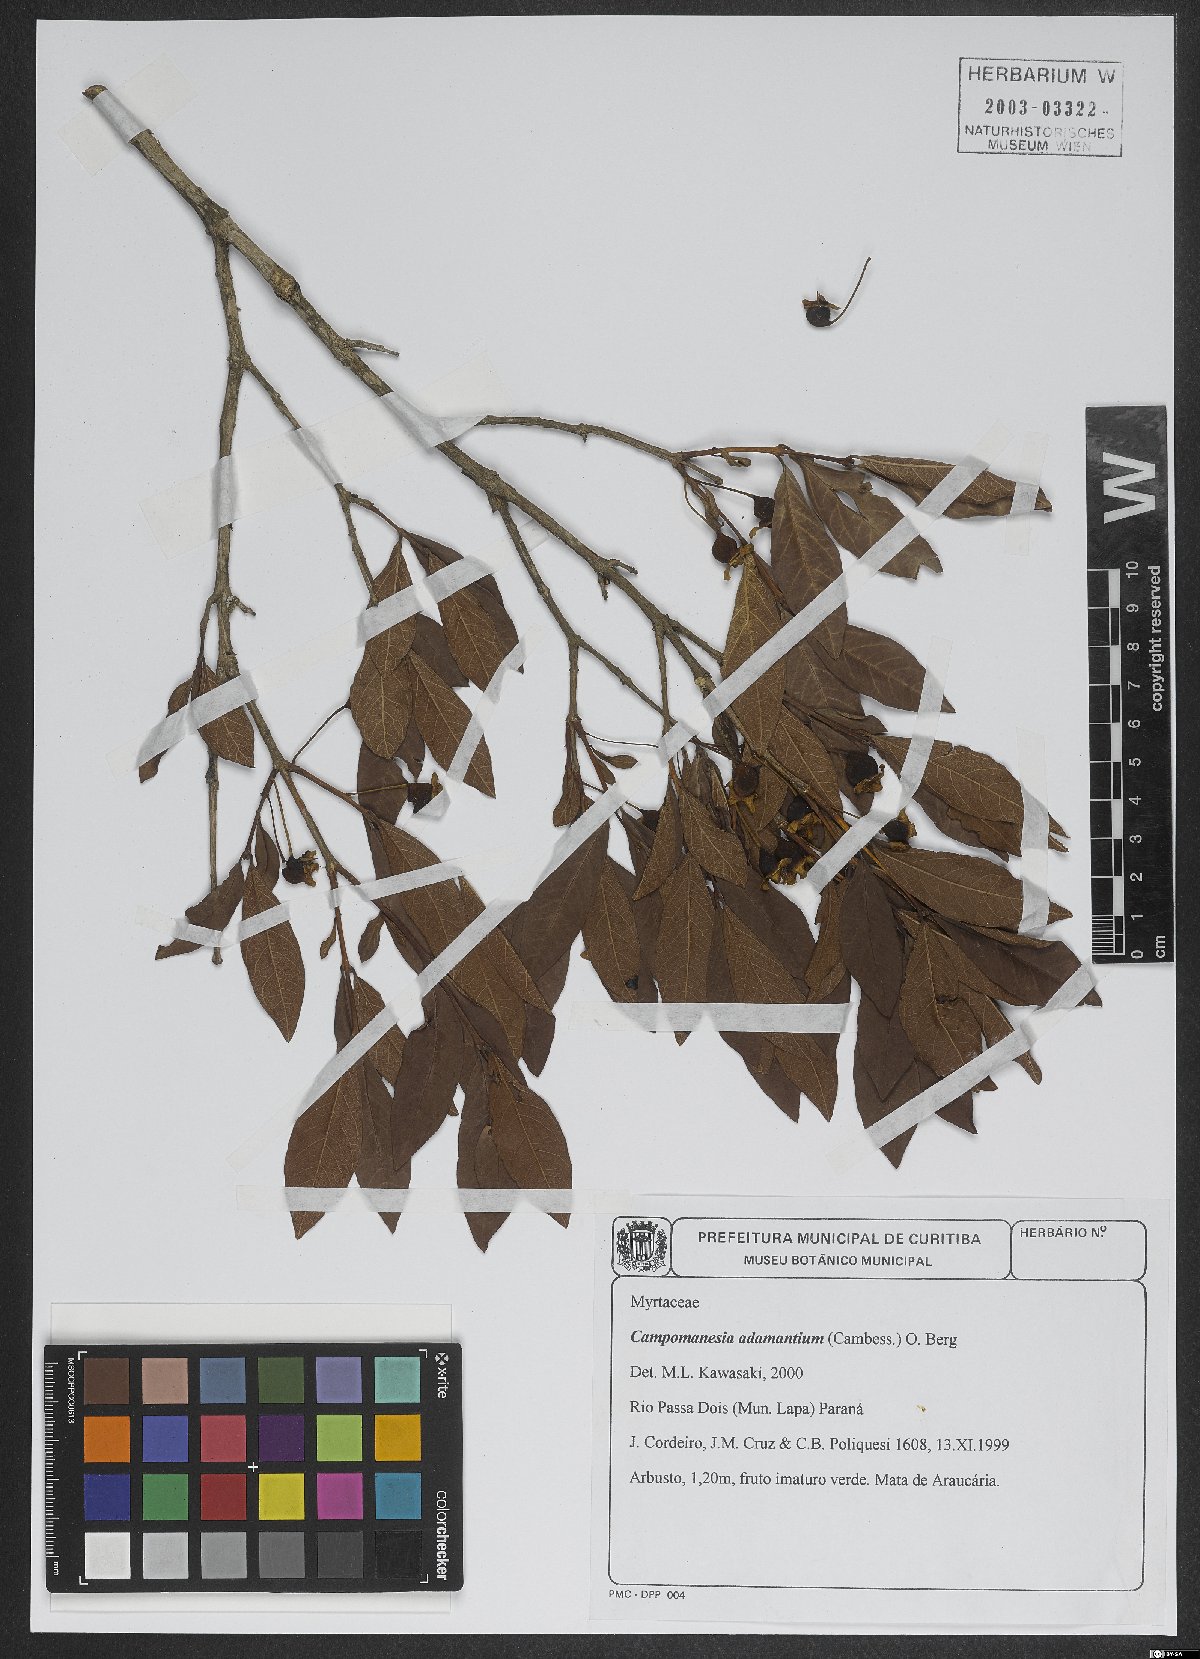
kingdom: Plantae
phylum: Tracheophyta
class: Magnoliopsida
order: Myrtales
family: Myrtaceae
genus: Campomanesia
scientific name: Campomanesia adamantium
